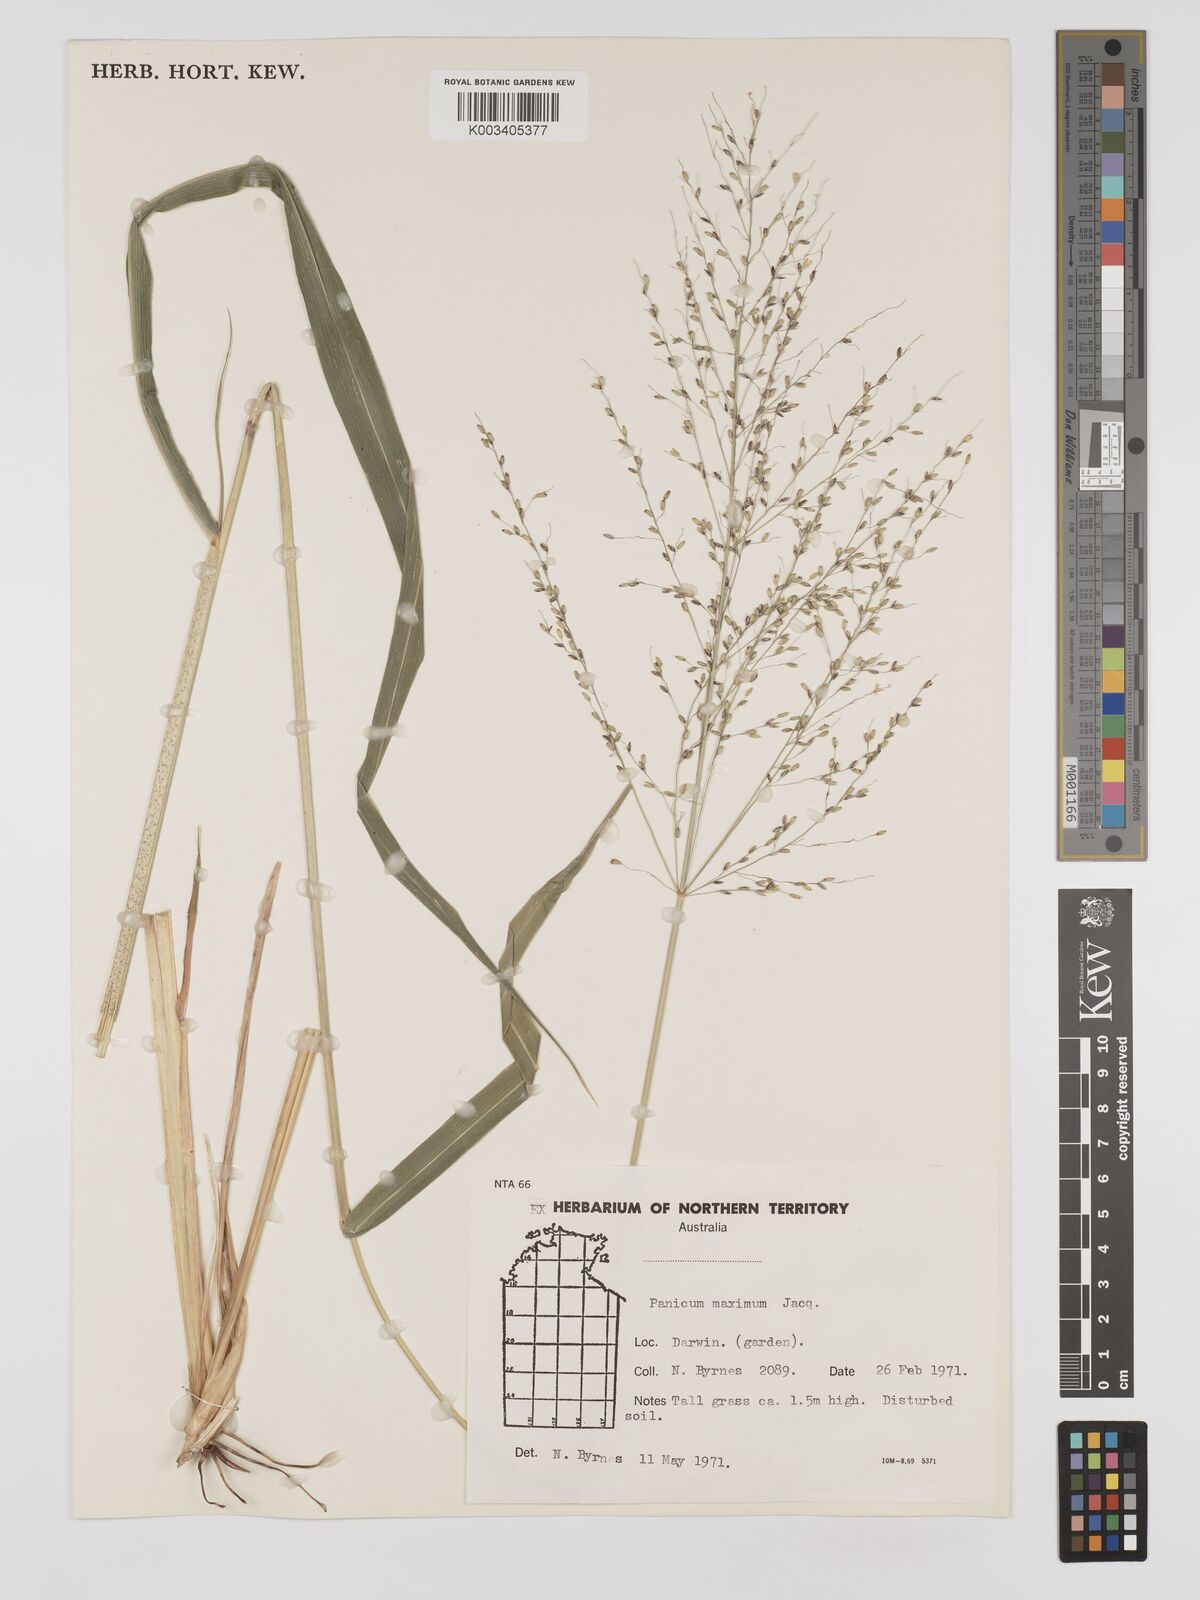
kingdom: Plantae
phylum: Tracheophyta
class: Liliopsida
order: Poales
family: Poaceae
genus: Megathyrsus
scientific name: Megathyrsus maximus
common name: Guineagrass
